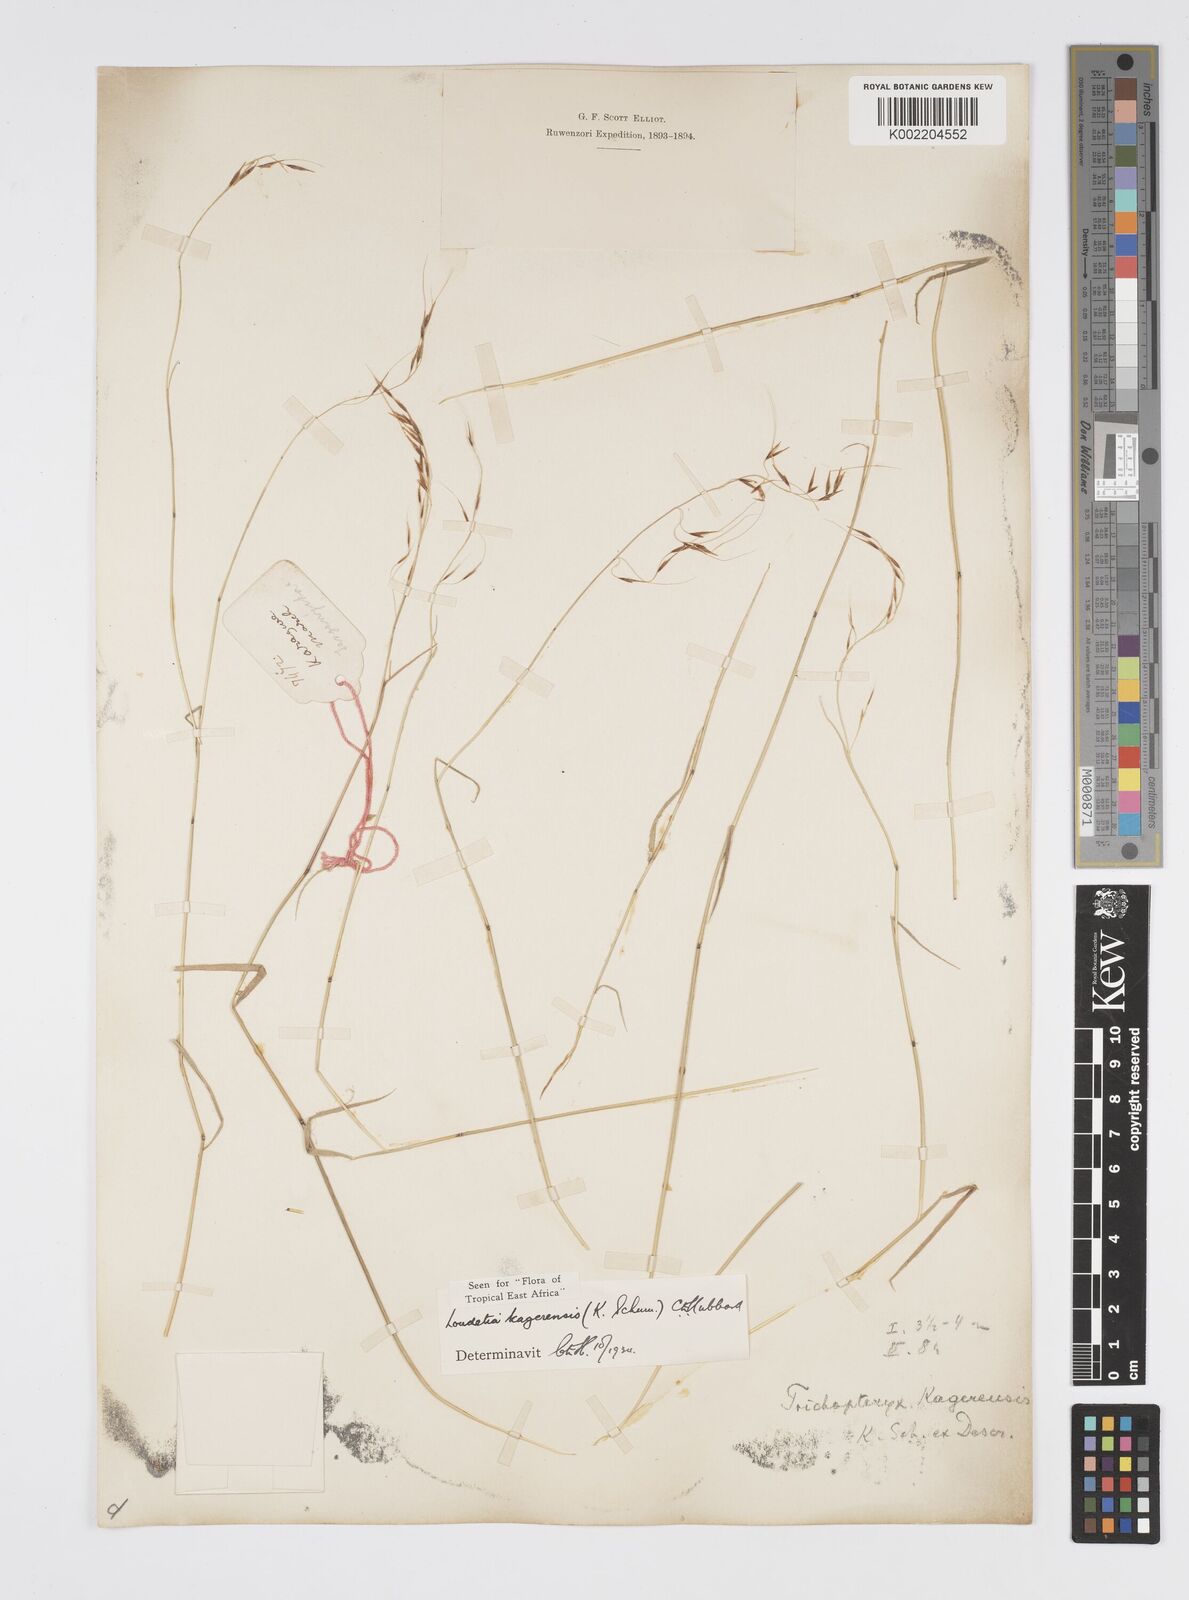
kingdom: Plantae
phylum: Tracheophyta
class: Liliopsida
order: Poales
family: Poaceae
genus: Loudetia
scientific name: Loudetia kagerensis
